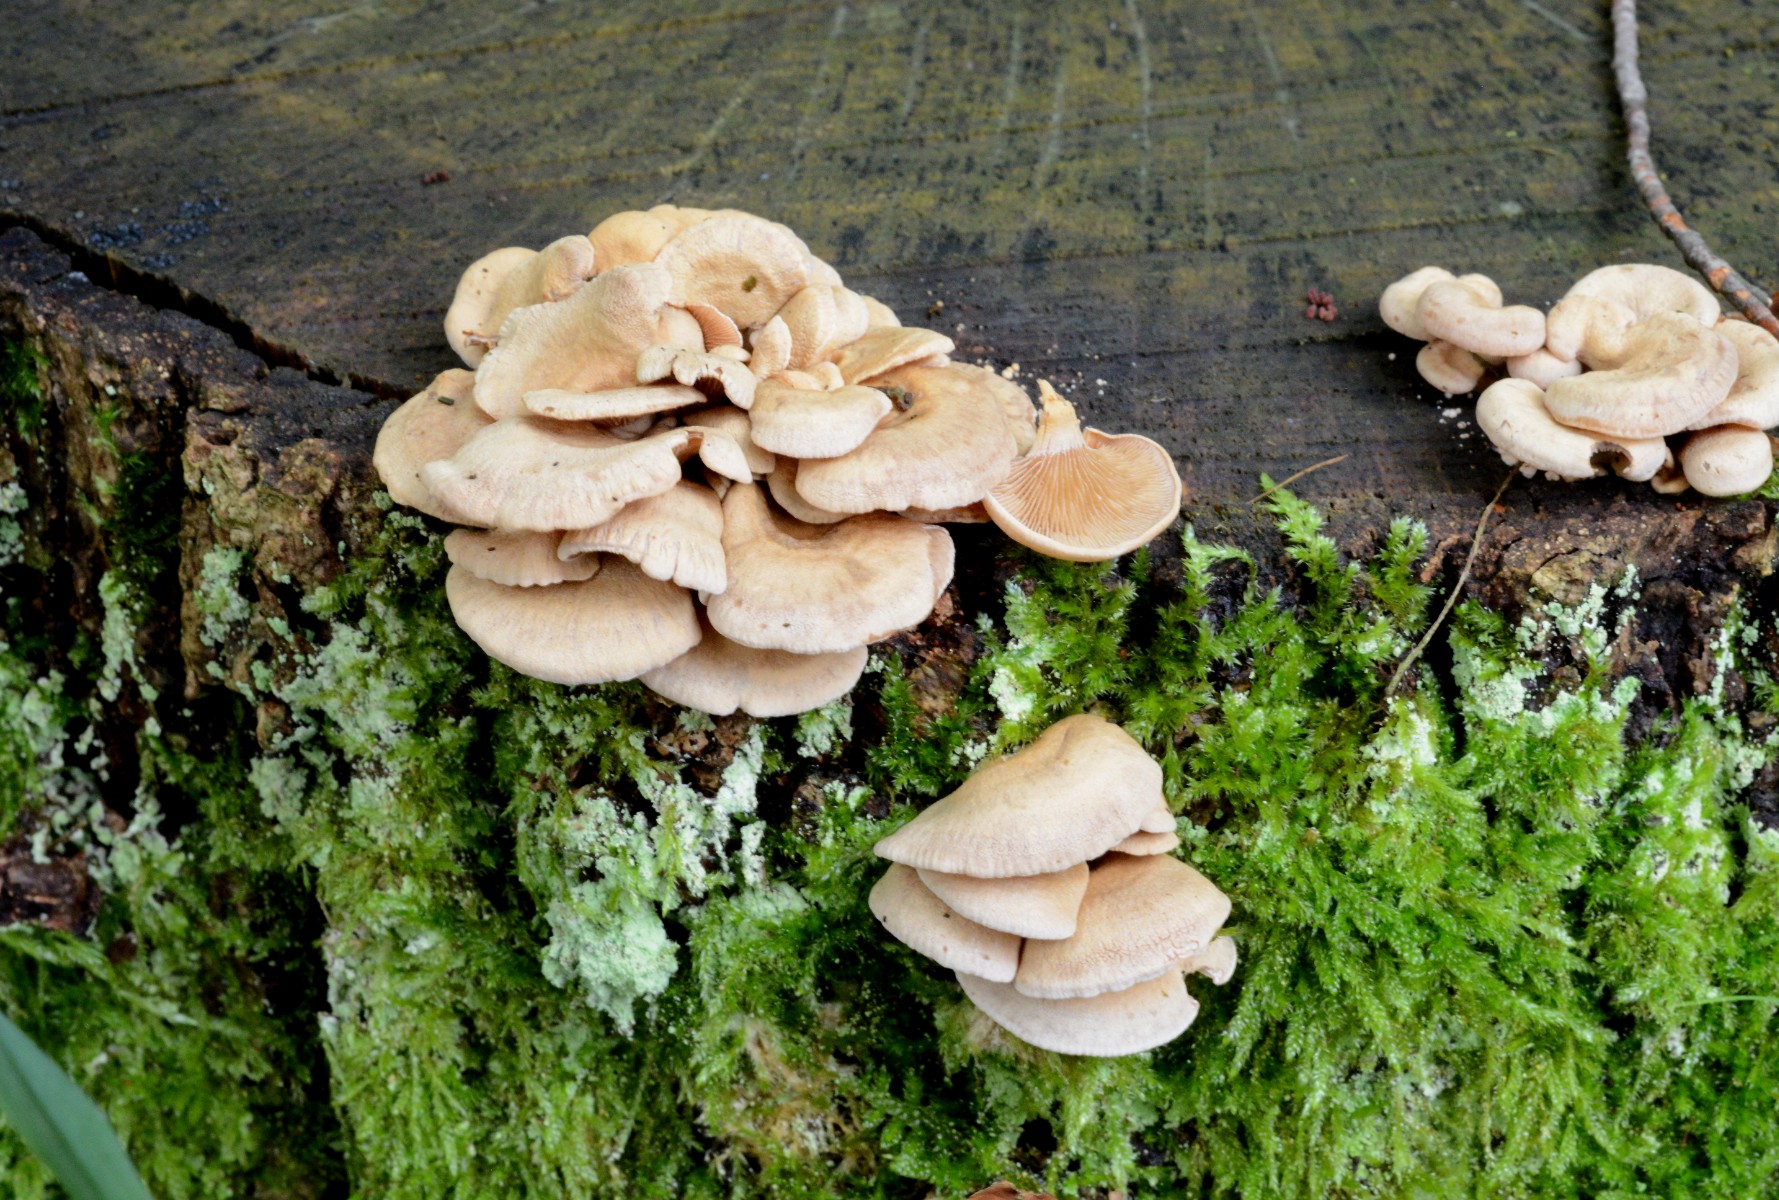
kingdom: Fungi
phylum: Basidiomycota
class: Agaricomycetes
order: Agaricales
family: Mycenaceae
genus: Panellus
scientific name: Panellus stipticus
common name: kliddet epaulethat
